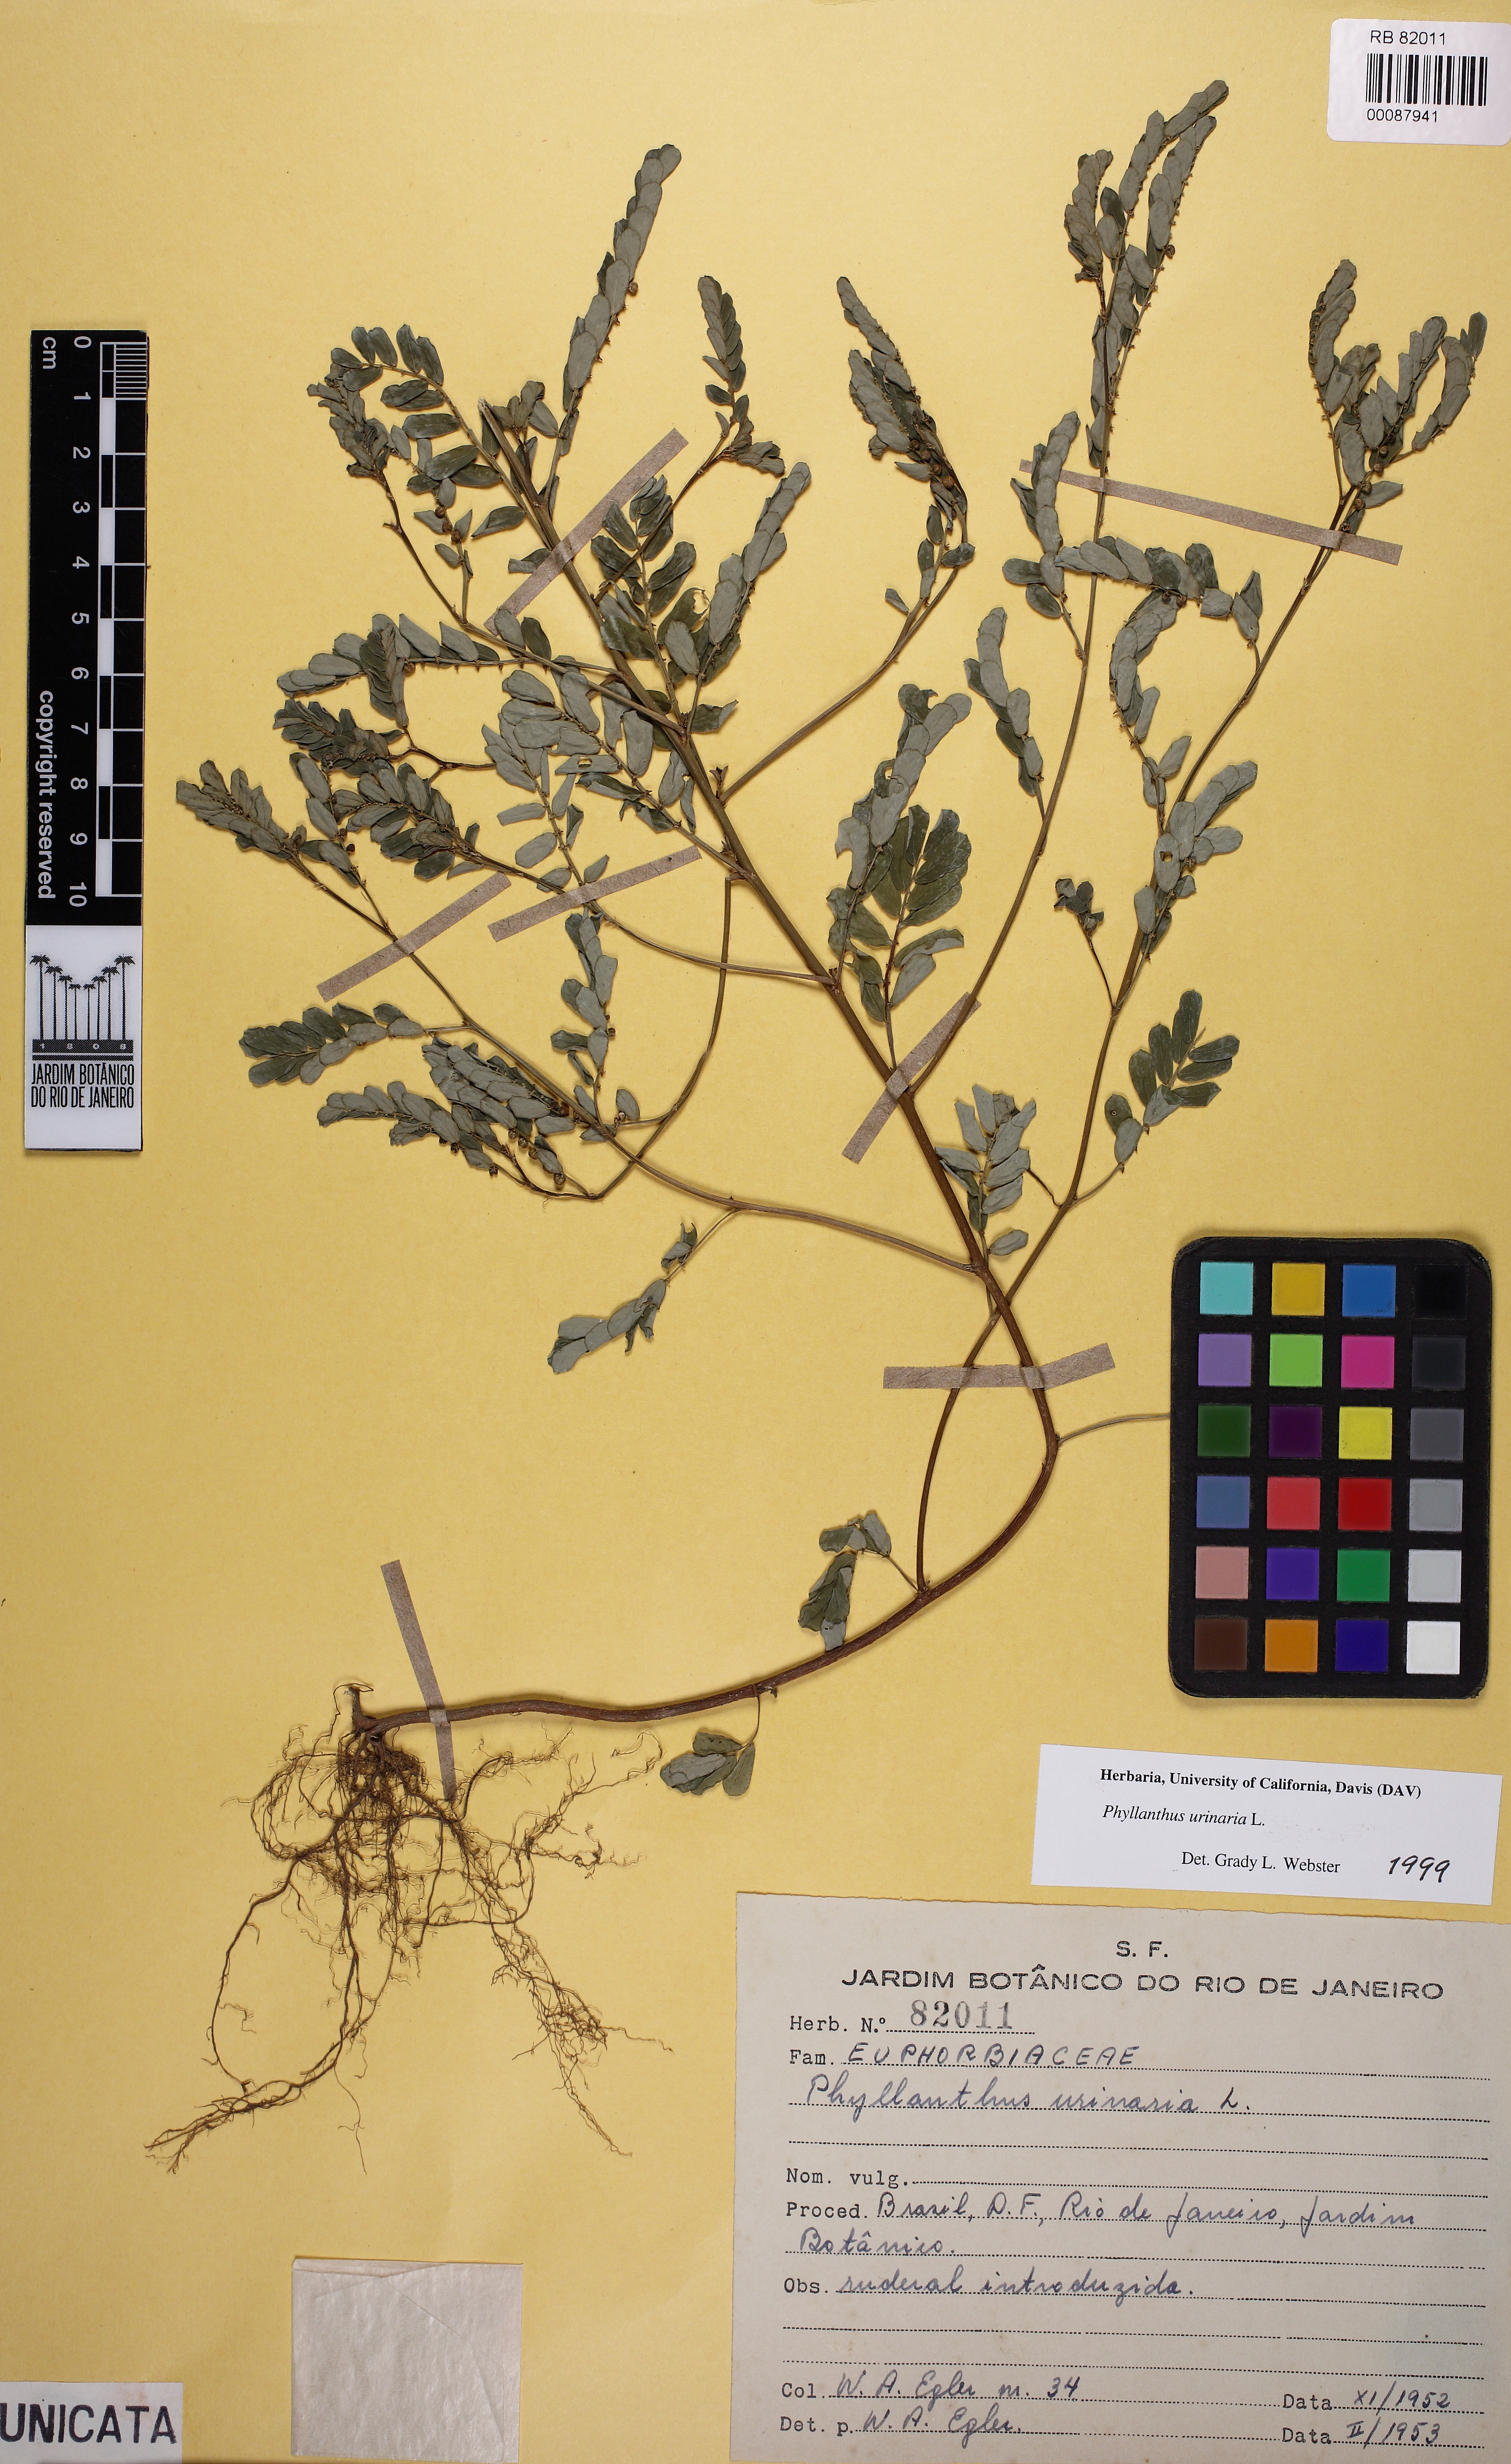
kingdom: Plantae
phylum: Tracheophyta
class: Magnoliopsida
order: Malpighiales
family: Phyllanthaceae
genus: Phyllanthus
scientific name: Phyllanthus urinaria
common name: Chamber bitter
